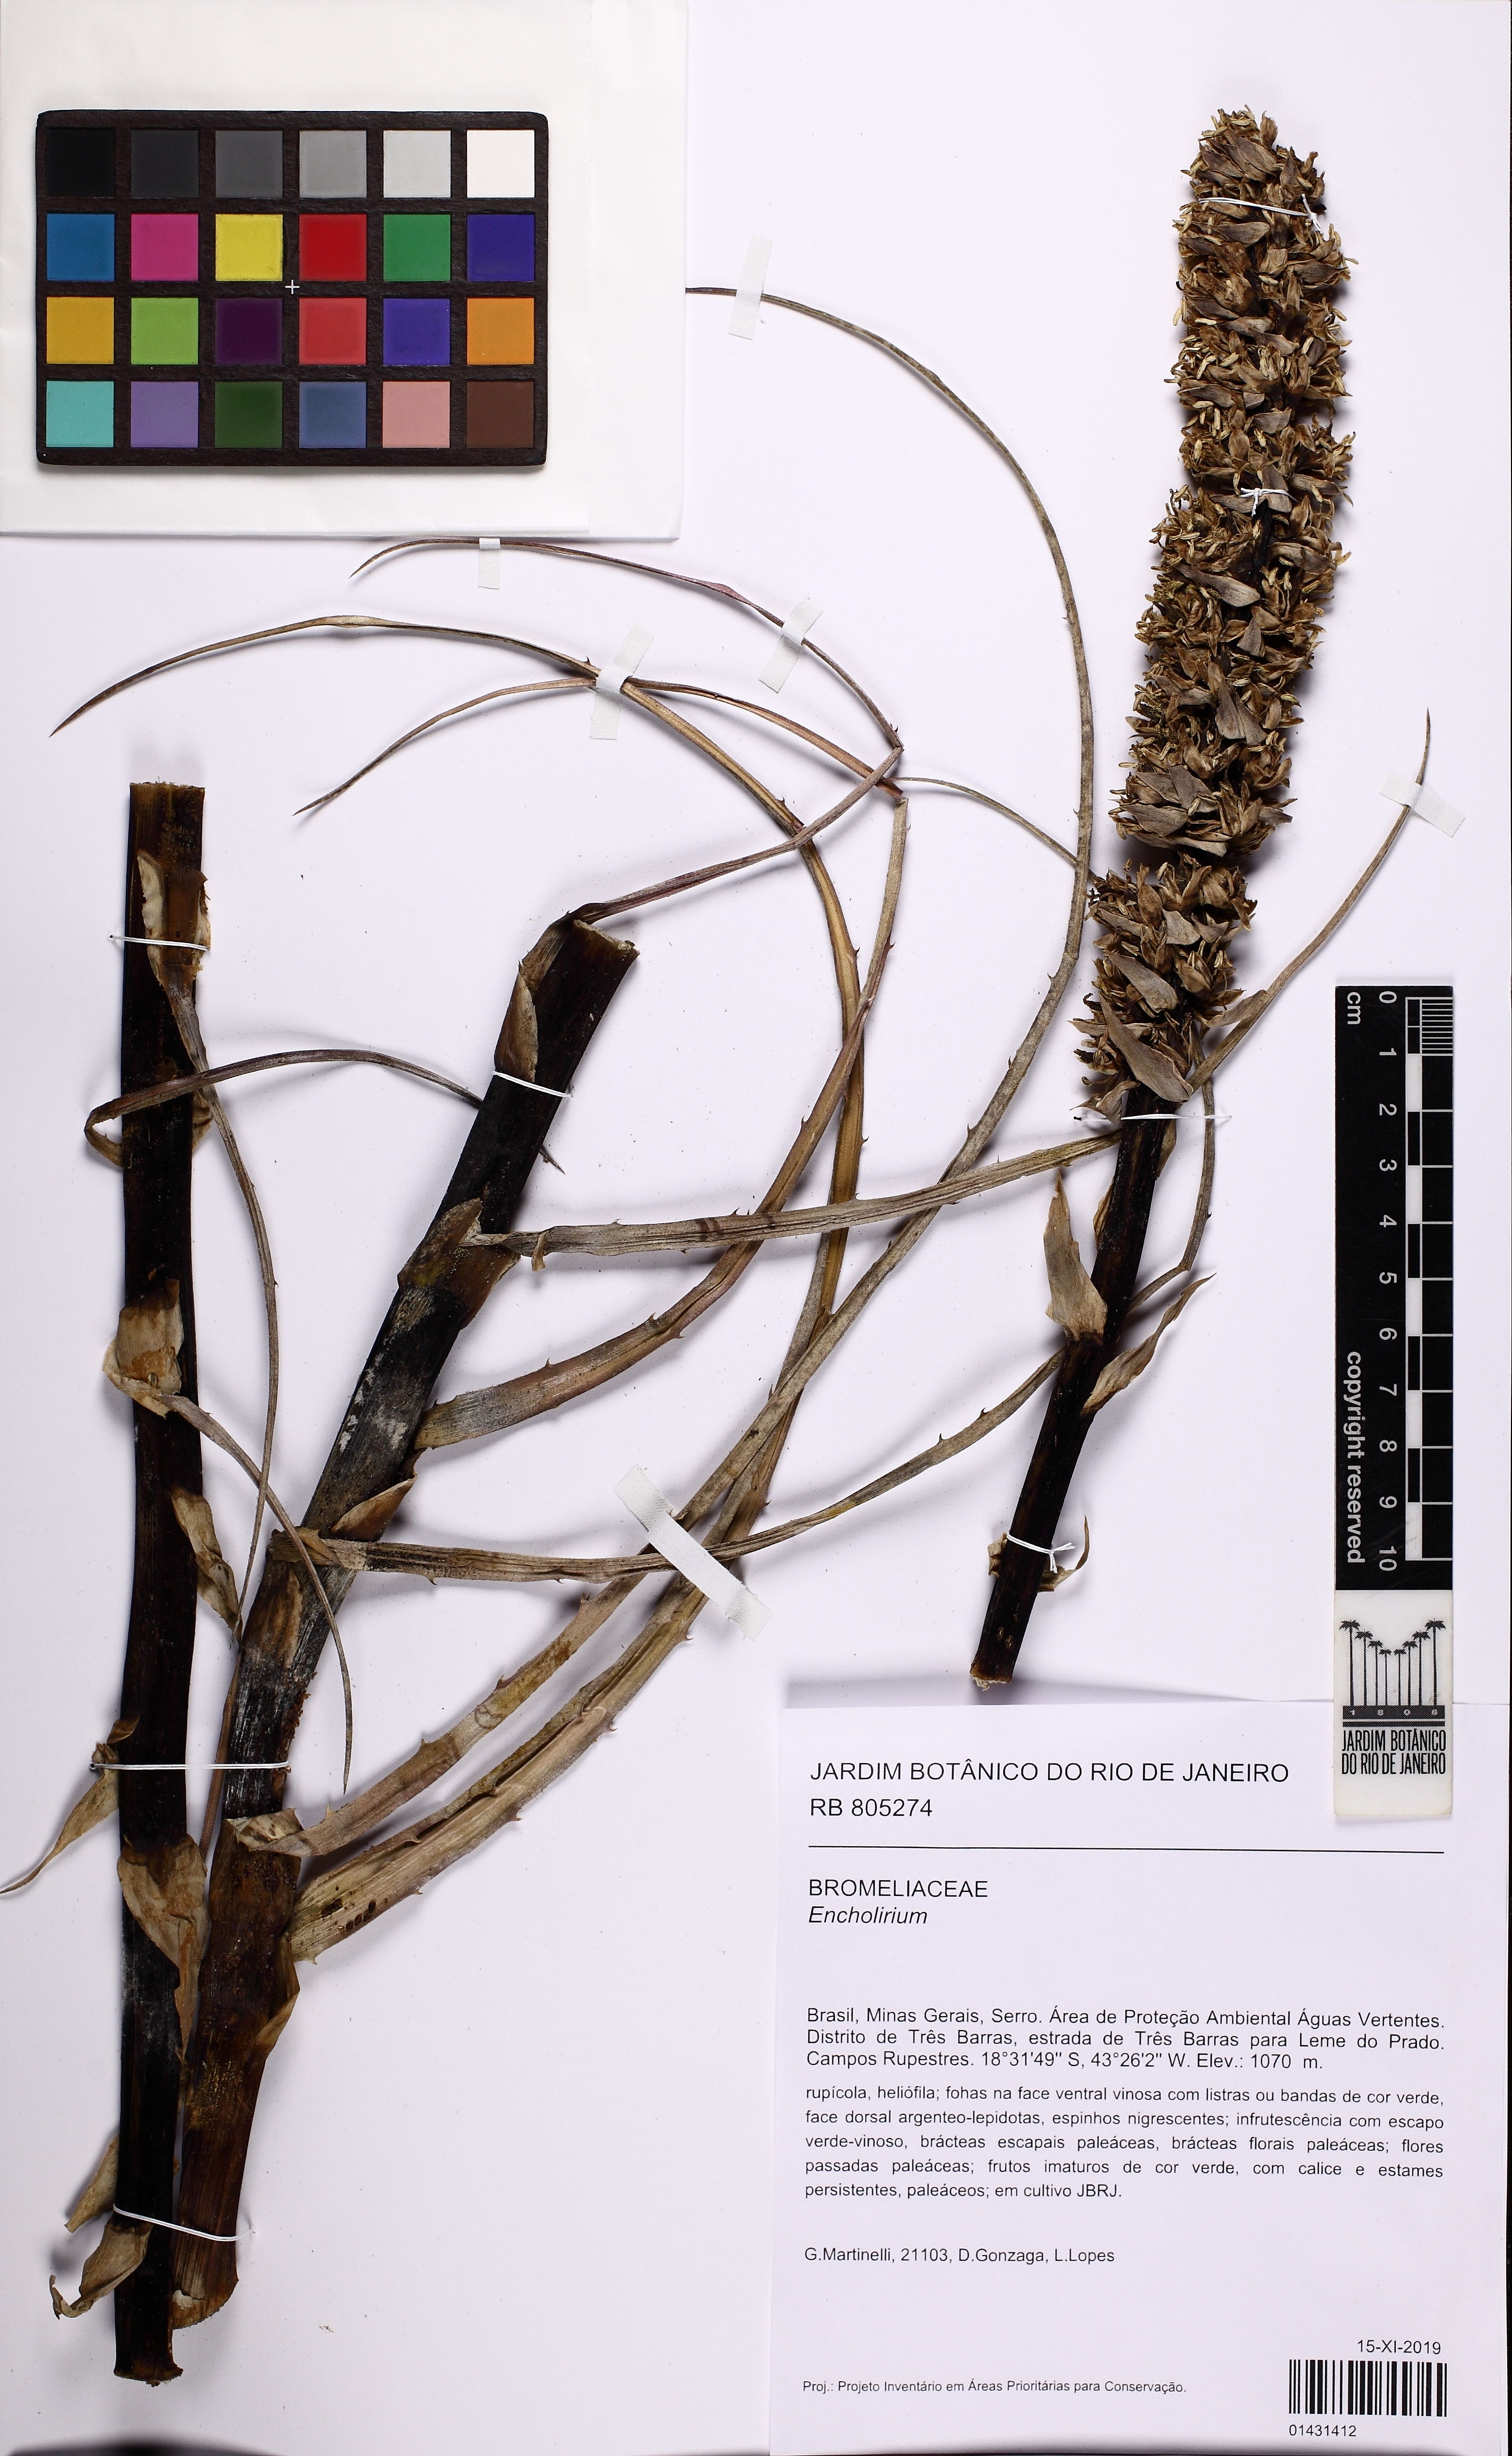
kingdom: Plantae
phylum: Tracheophyta
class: Liliopsida
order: Poales
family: Bromeliaceae
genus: Encholirium
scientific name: Encholirium
